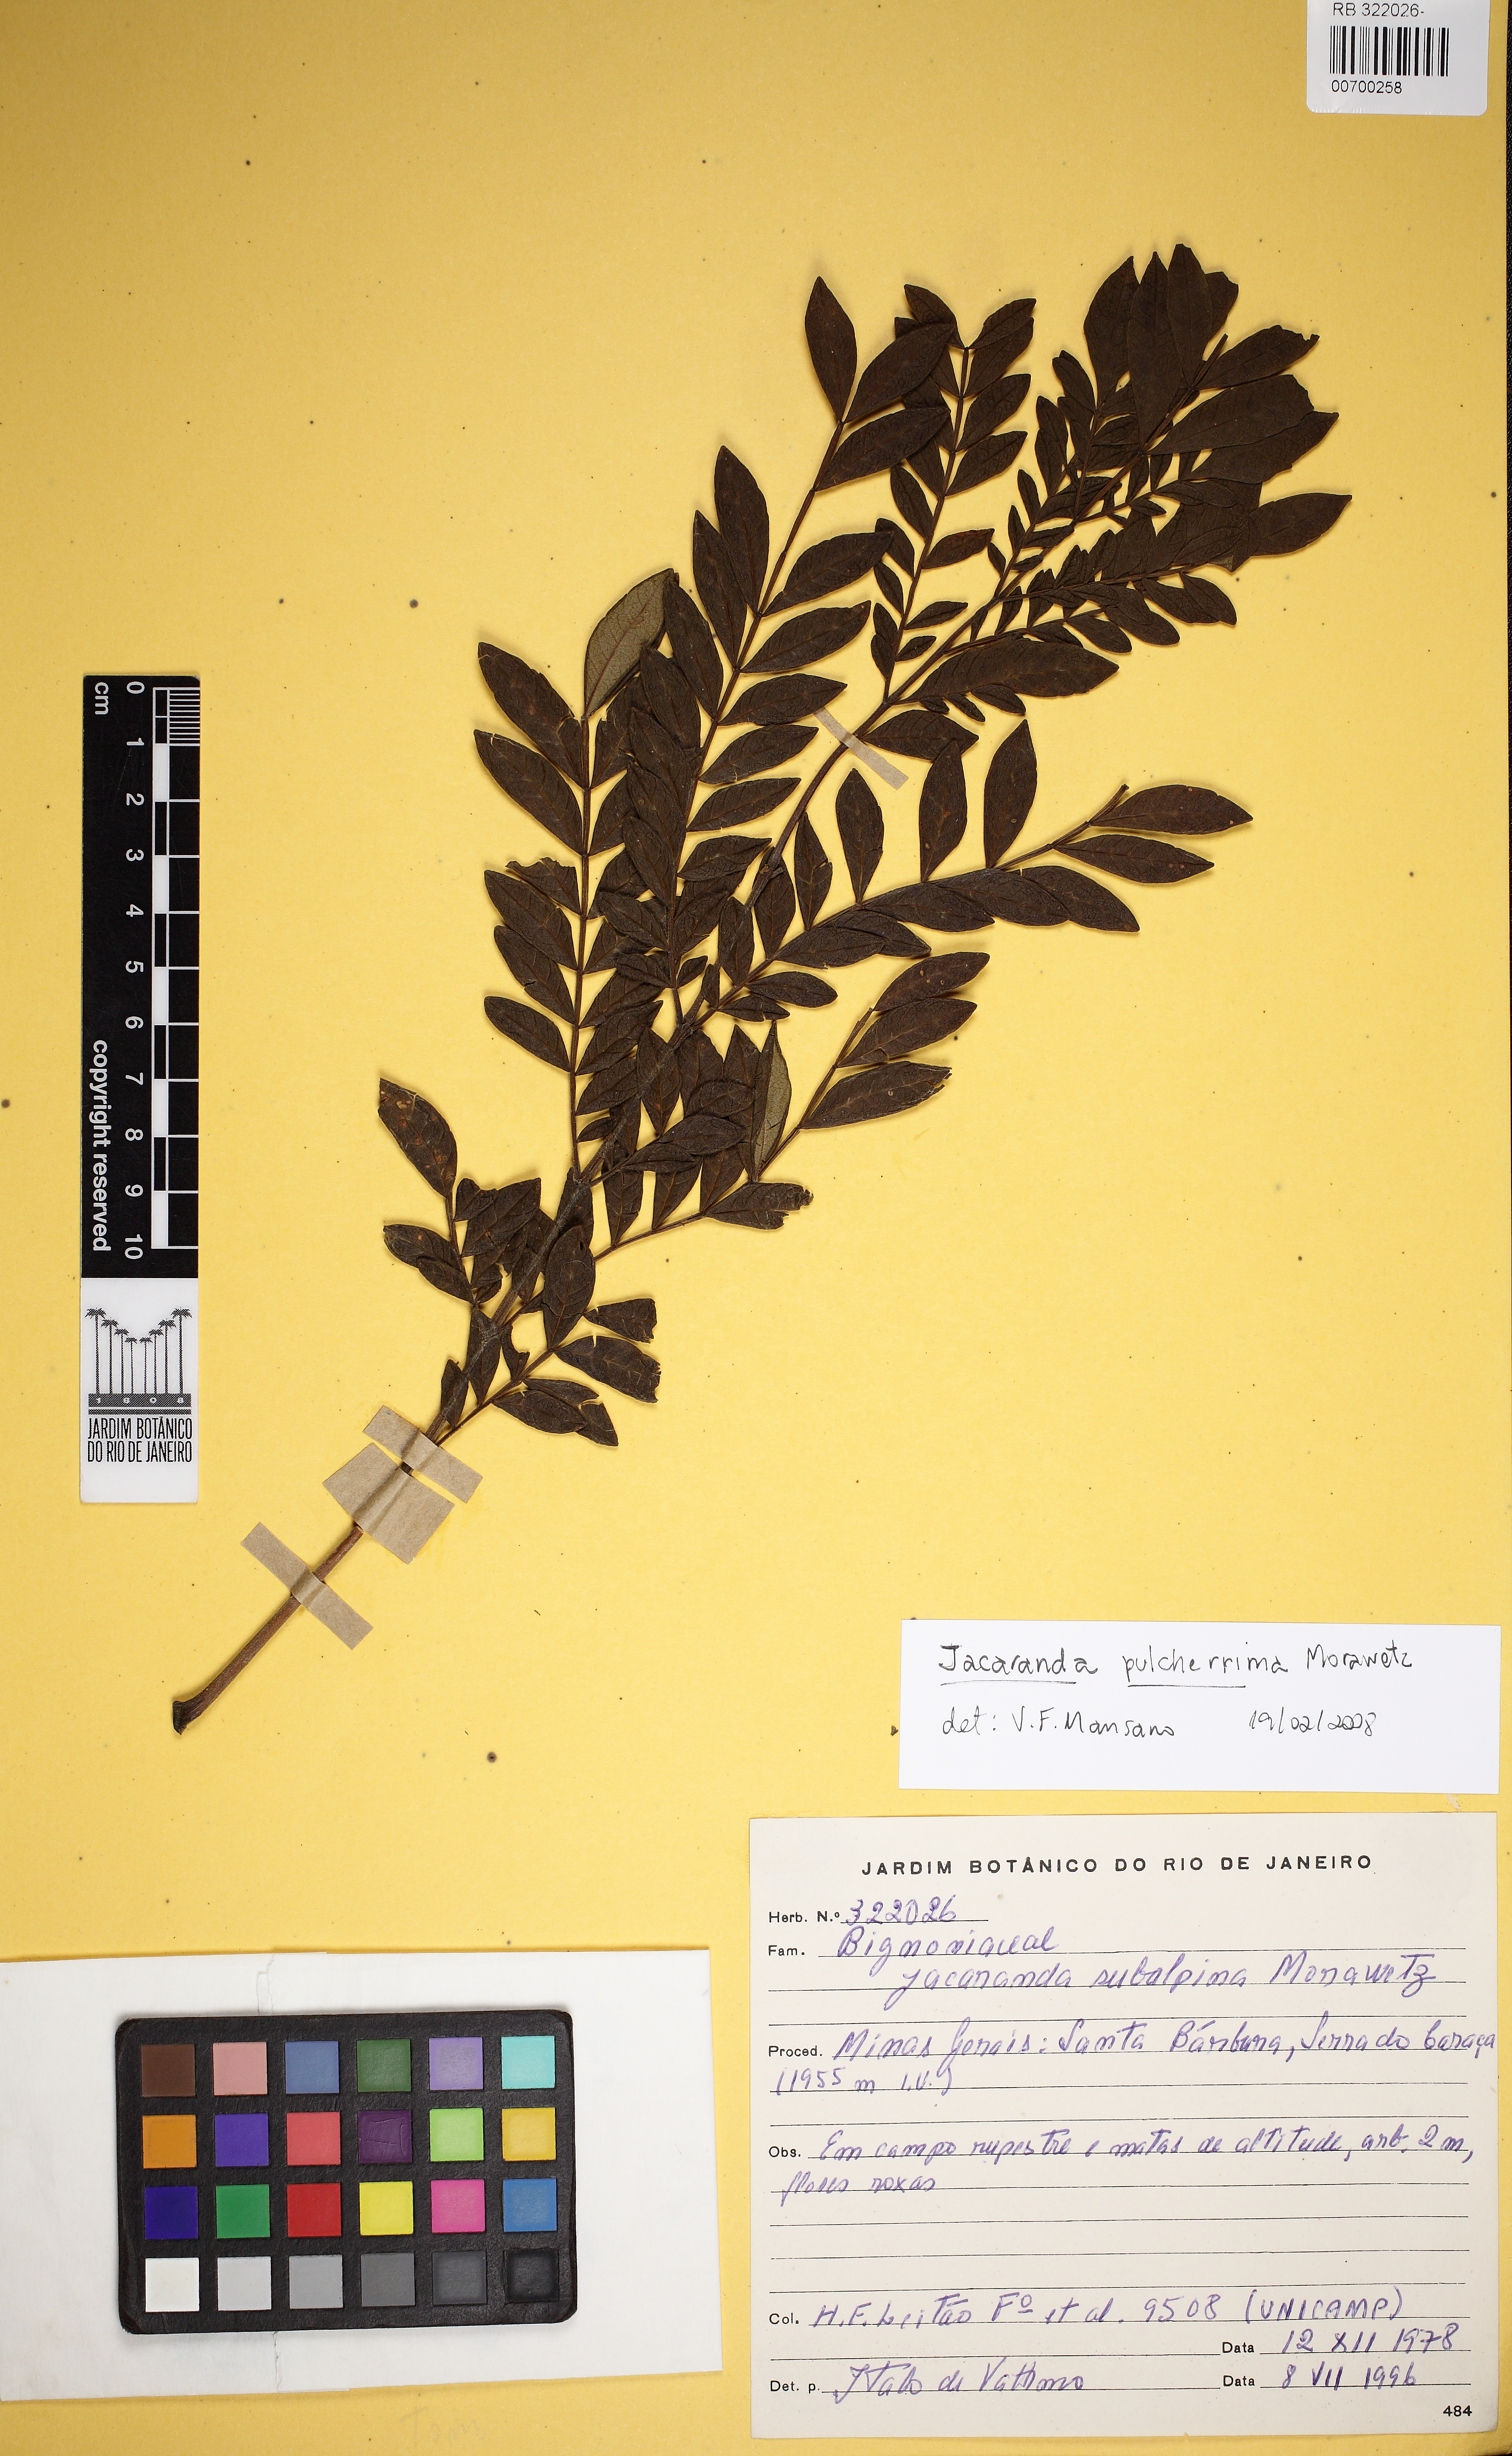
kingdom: Plantae
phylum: Tracheophyta
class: Magnoliopsida
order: Lamiales
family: Bignoniaceae
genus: Jacaranda
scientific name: Jacaranda pulcherrima
